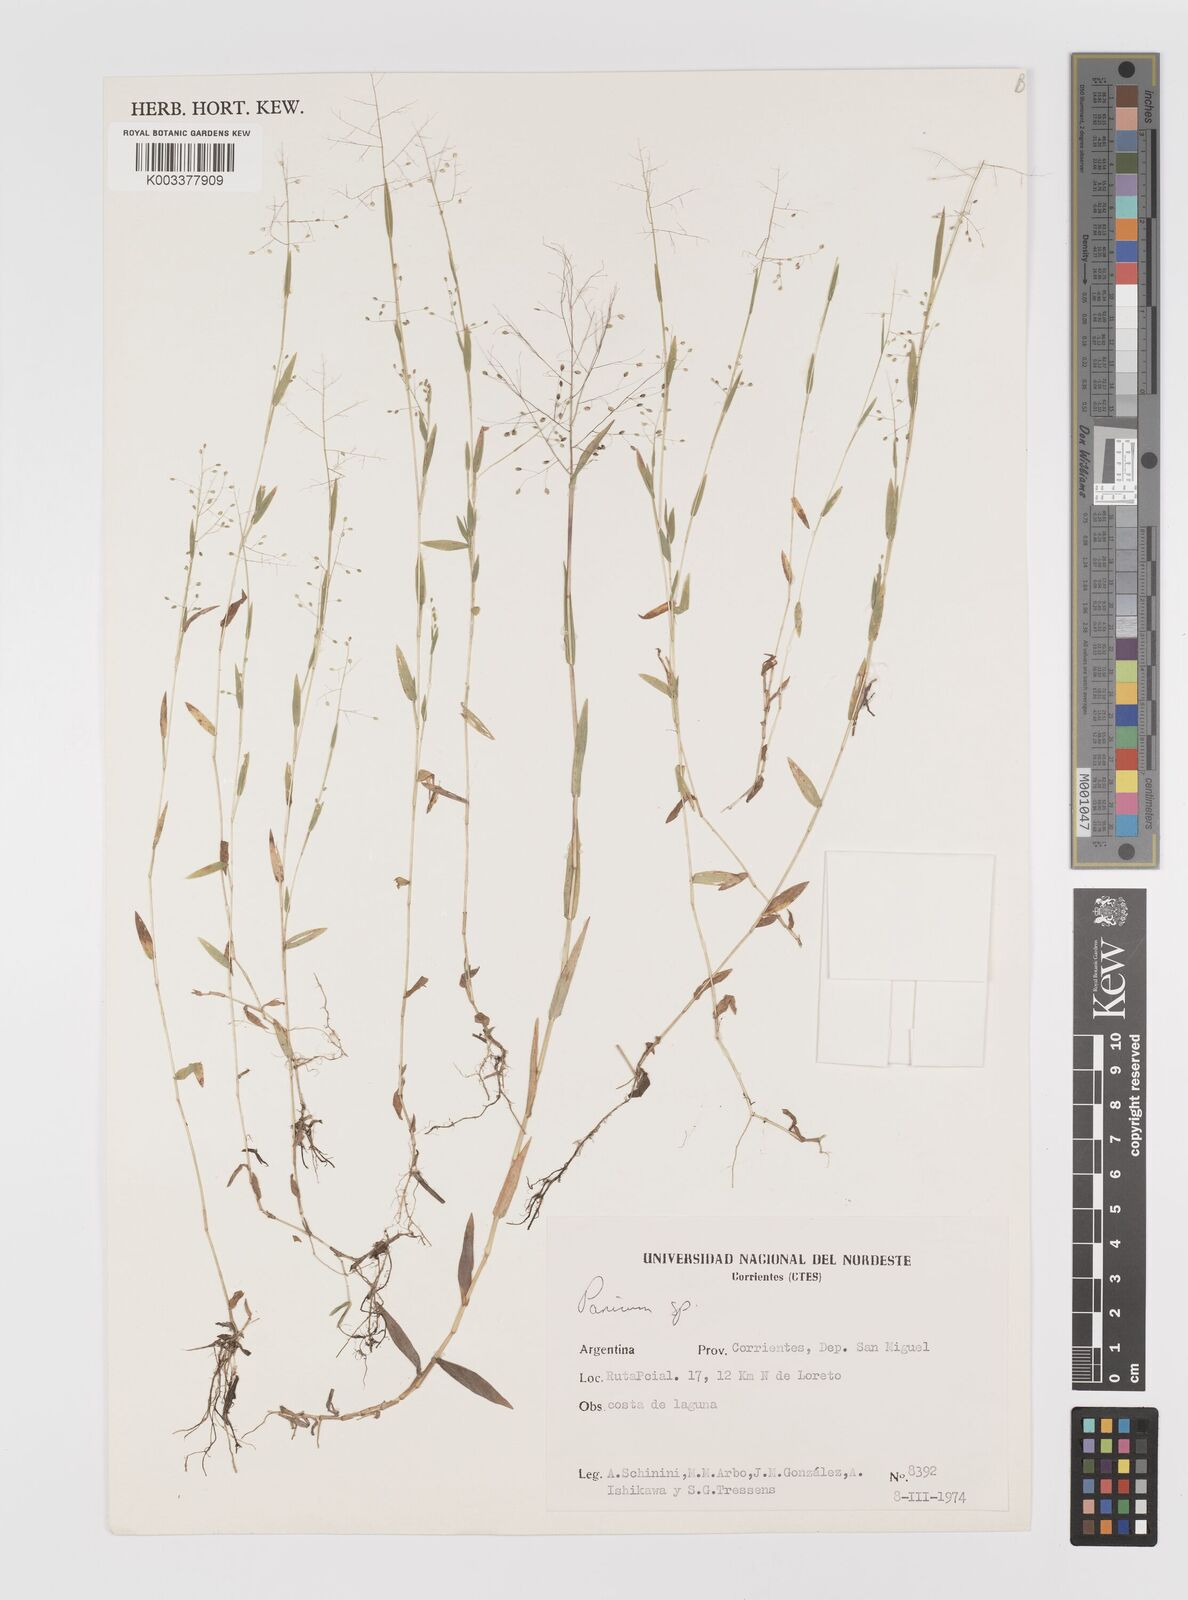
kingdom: Plantae
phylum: Tracheophyta
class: Liliopsida
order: Poales
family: Poaceae
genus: Panicum
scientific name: Panicum
